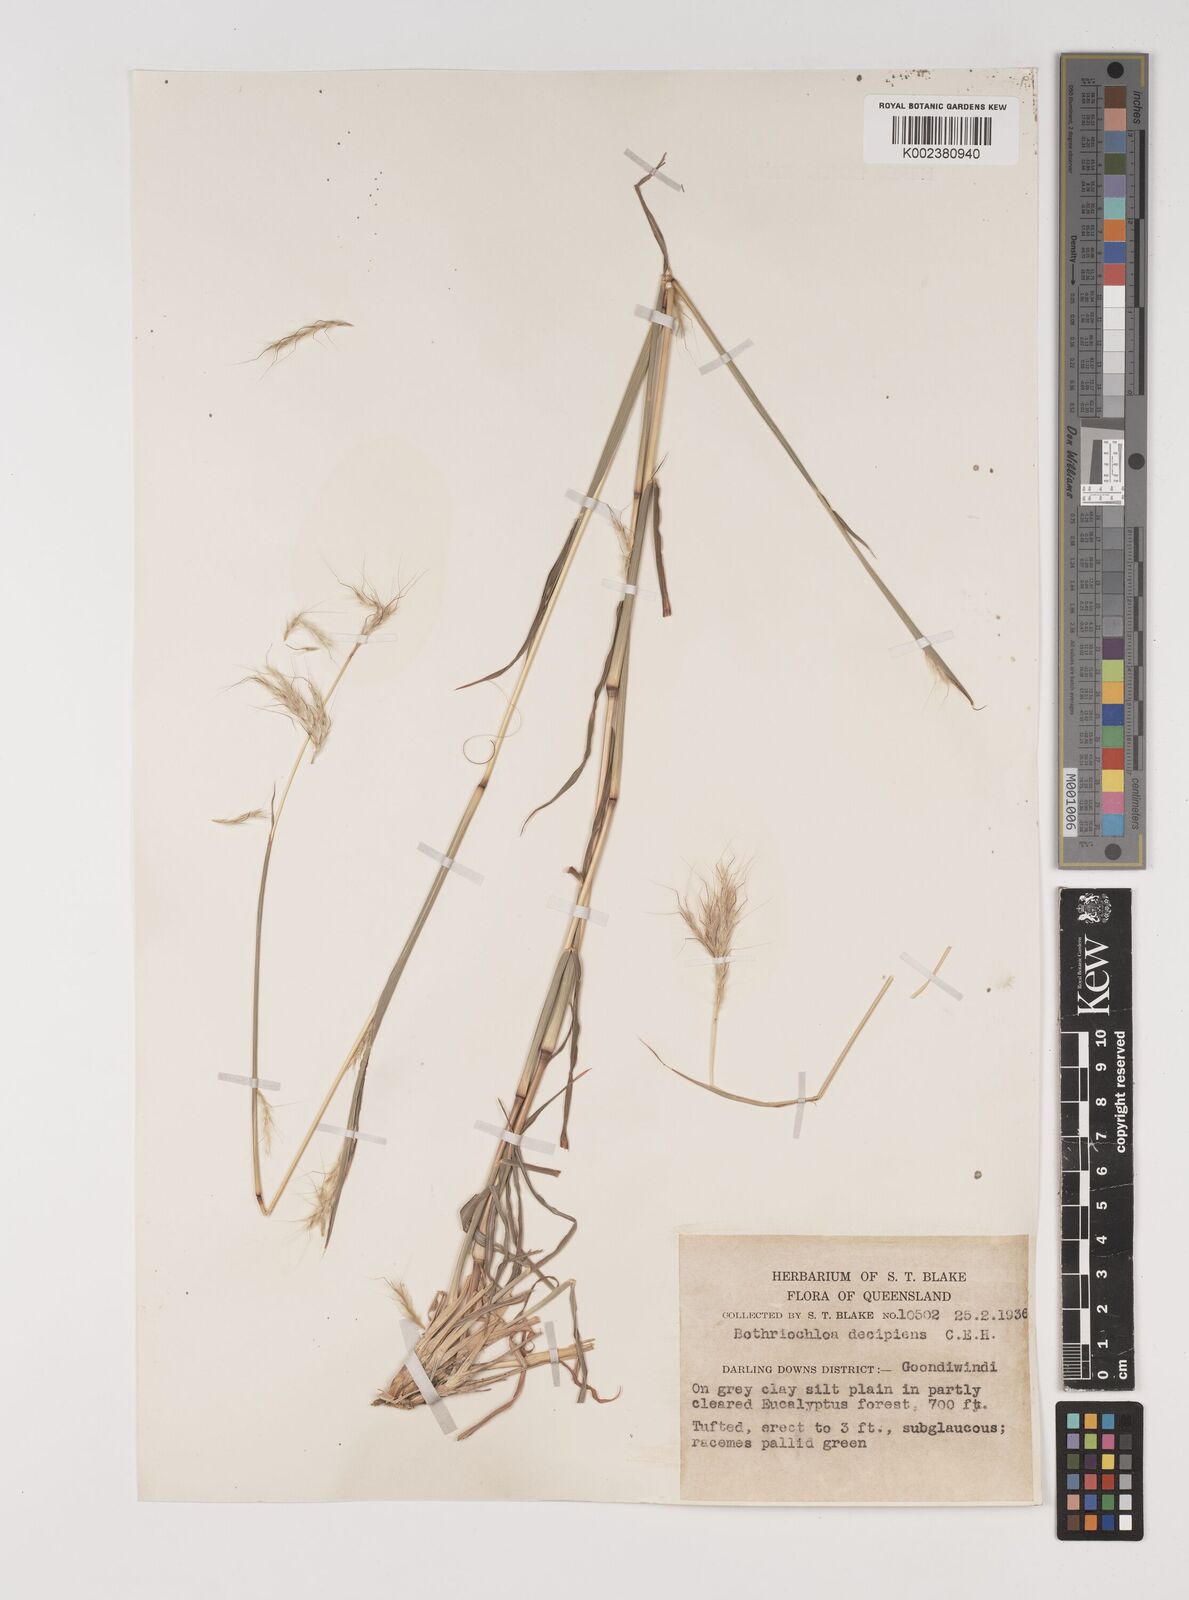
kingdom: Plantae
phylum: Tracheophyta
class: Liliopsida
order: Poales
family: Poaceae
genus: Bothriochloa
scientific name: Bothriochloa decipiens
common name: Pitted-bluegrass
